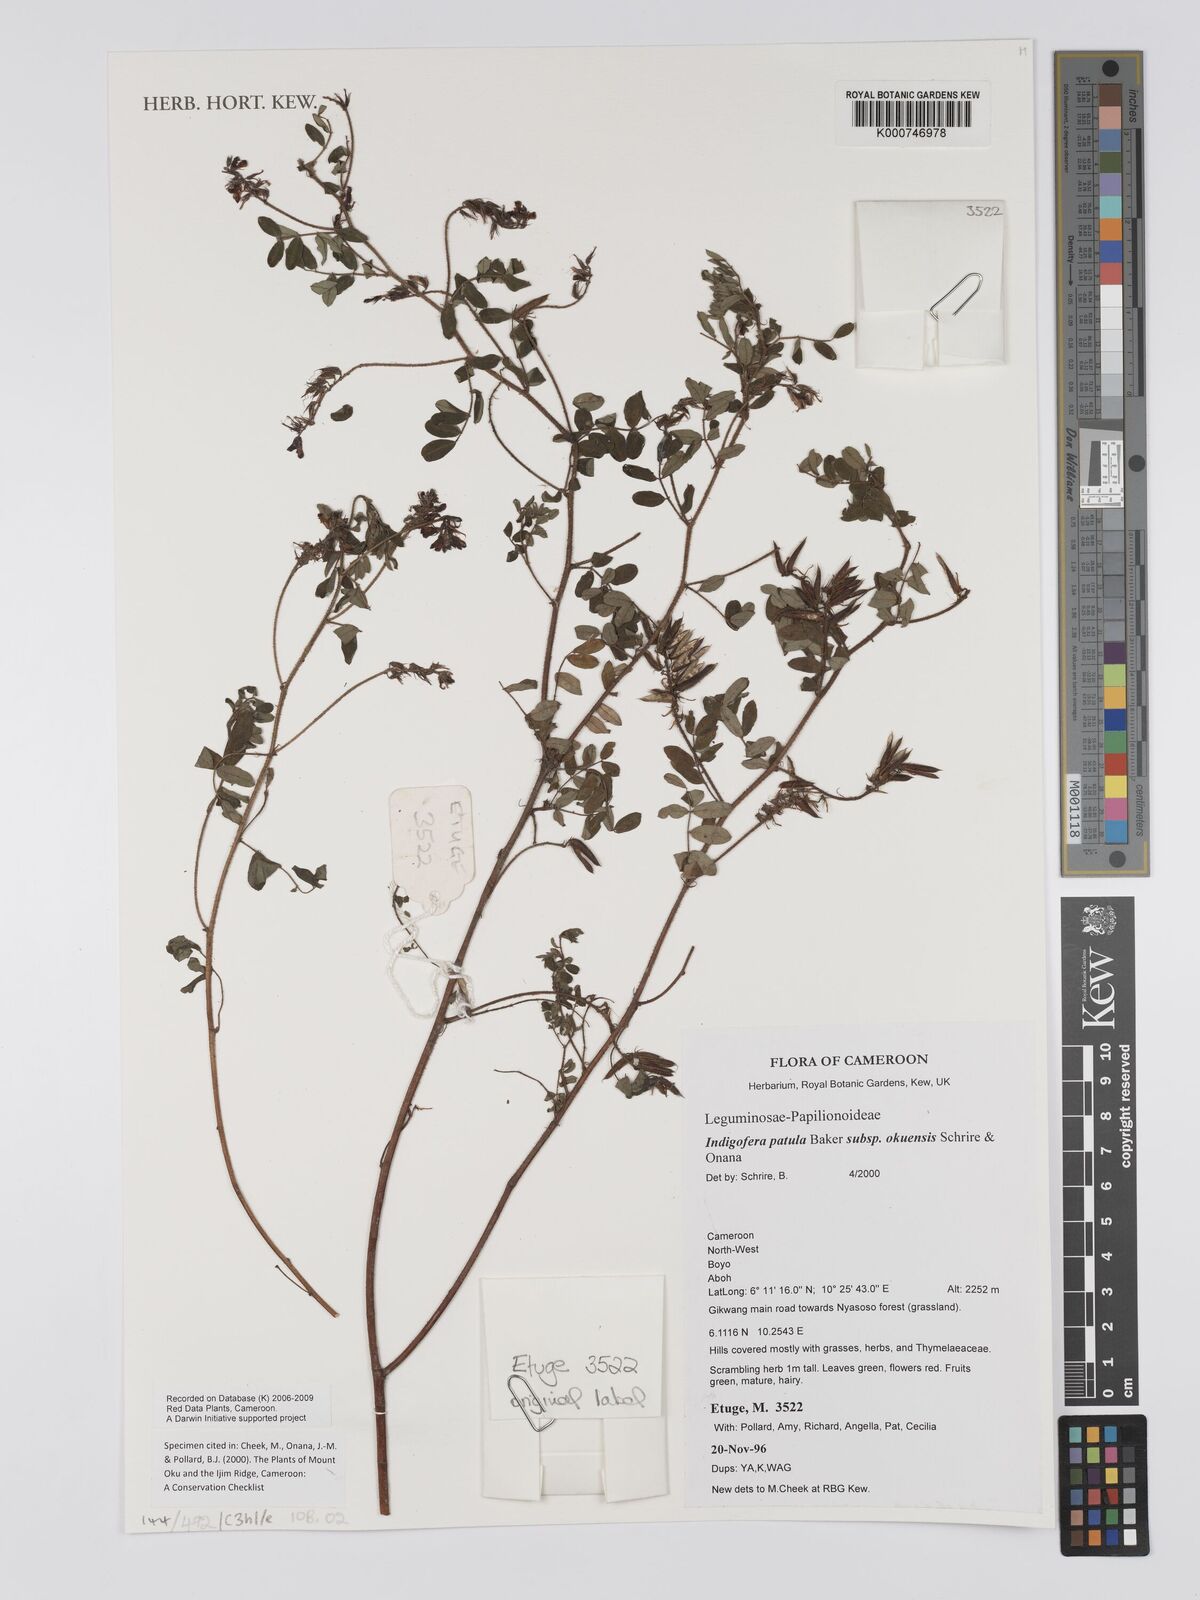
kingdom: Plantae
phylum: Tracheophyta
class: Magnoliopsida
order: Fabales
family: Fabaceae
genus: Indigofera
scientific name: Indigofera patula
